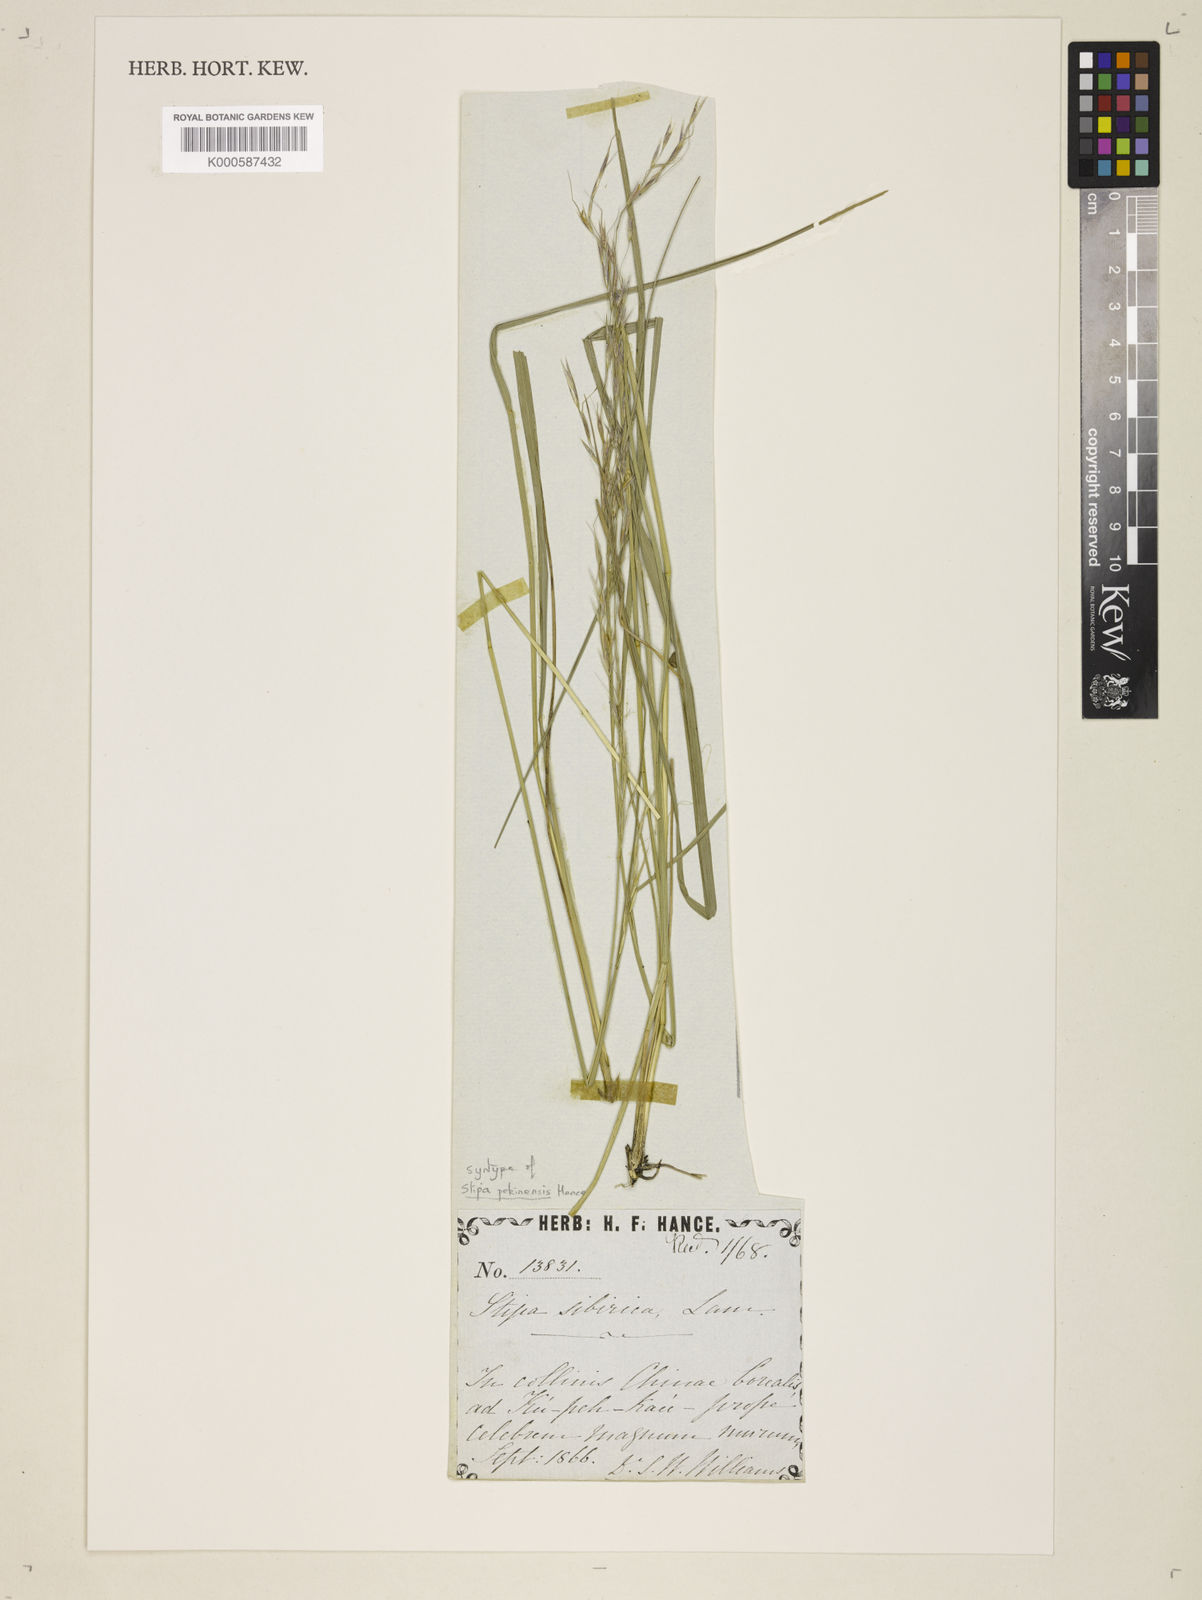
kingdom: Plantae
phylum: Tracheophyta
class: Liliopsida
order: Poales
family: Poaceae
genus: Achnatherum
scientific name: Achnatherum pekinense
